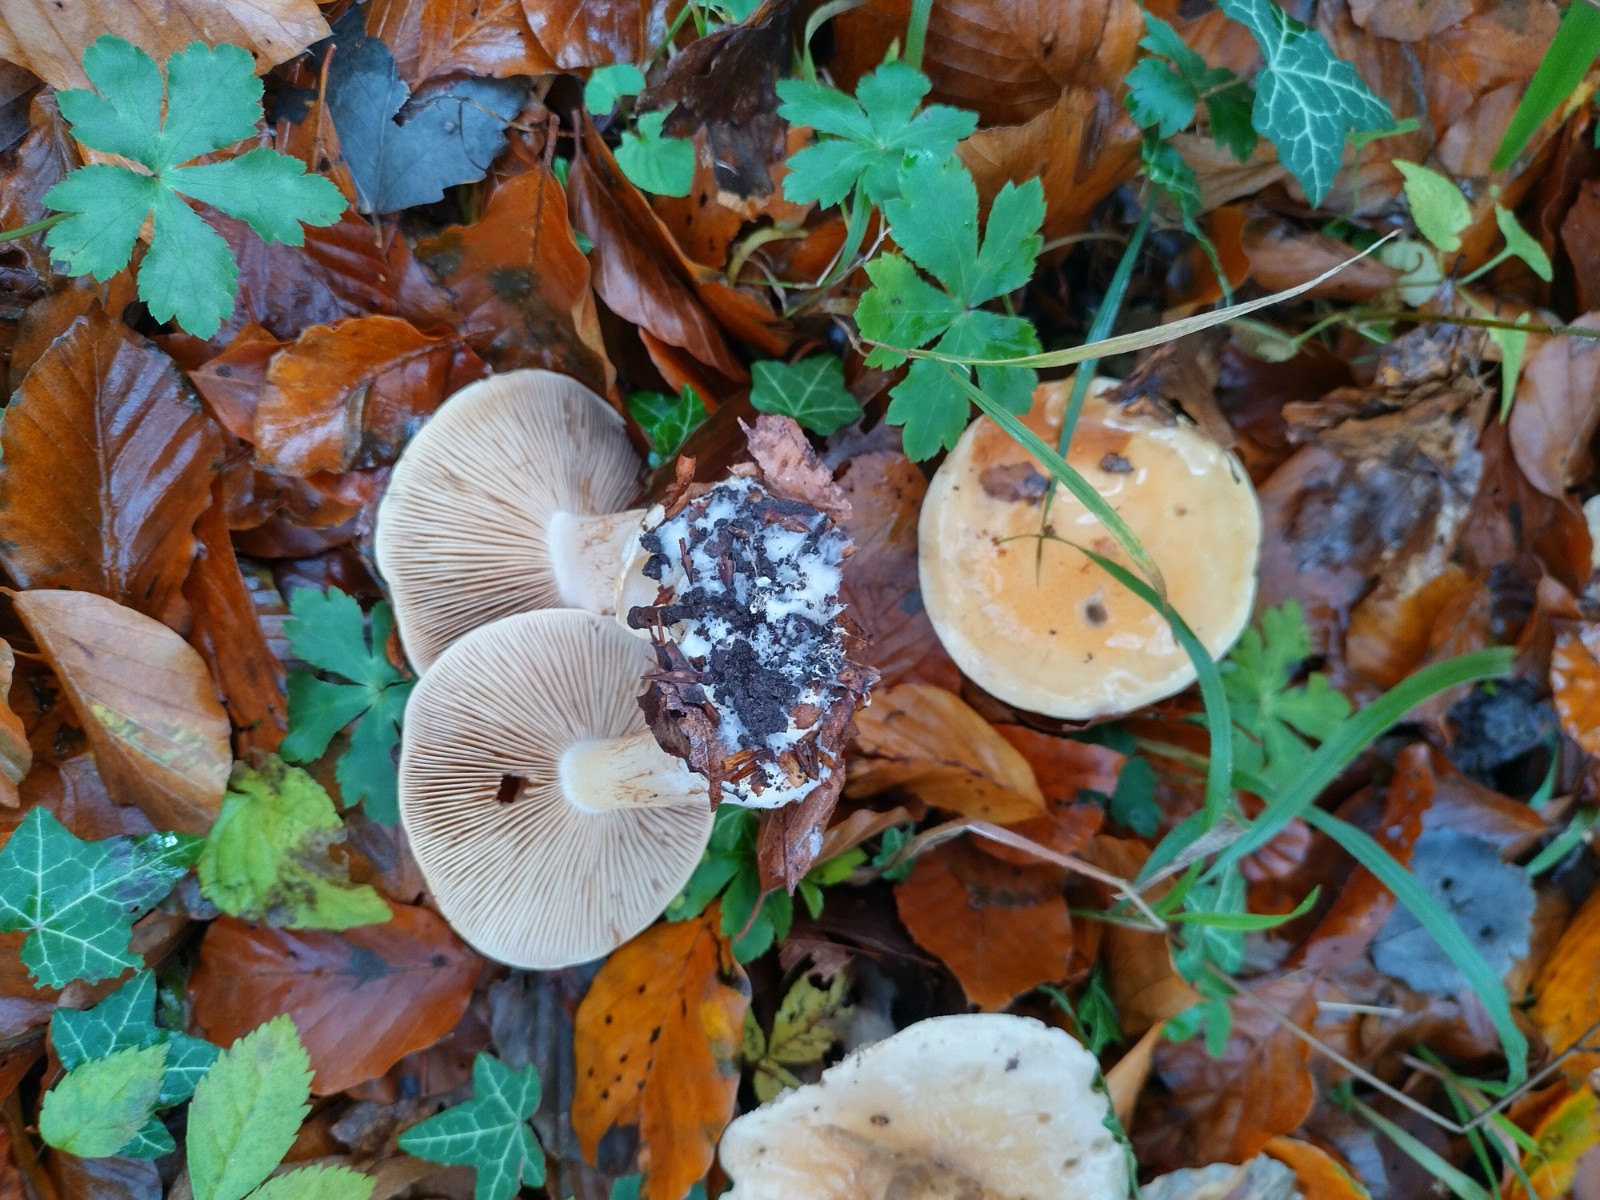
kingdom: Fungi
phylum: Basidiomycota
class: Agaricomycetes
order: Agaricales
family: Cortinariaceae
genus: Phlegmacium
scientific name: Phlegmacium rhizophorum
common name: finkornet slørhat
